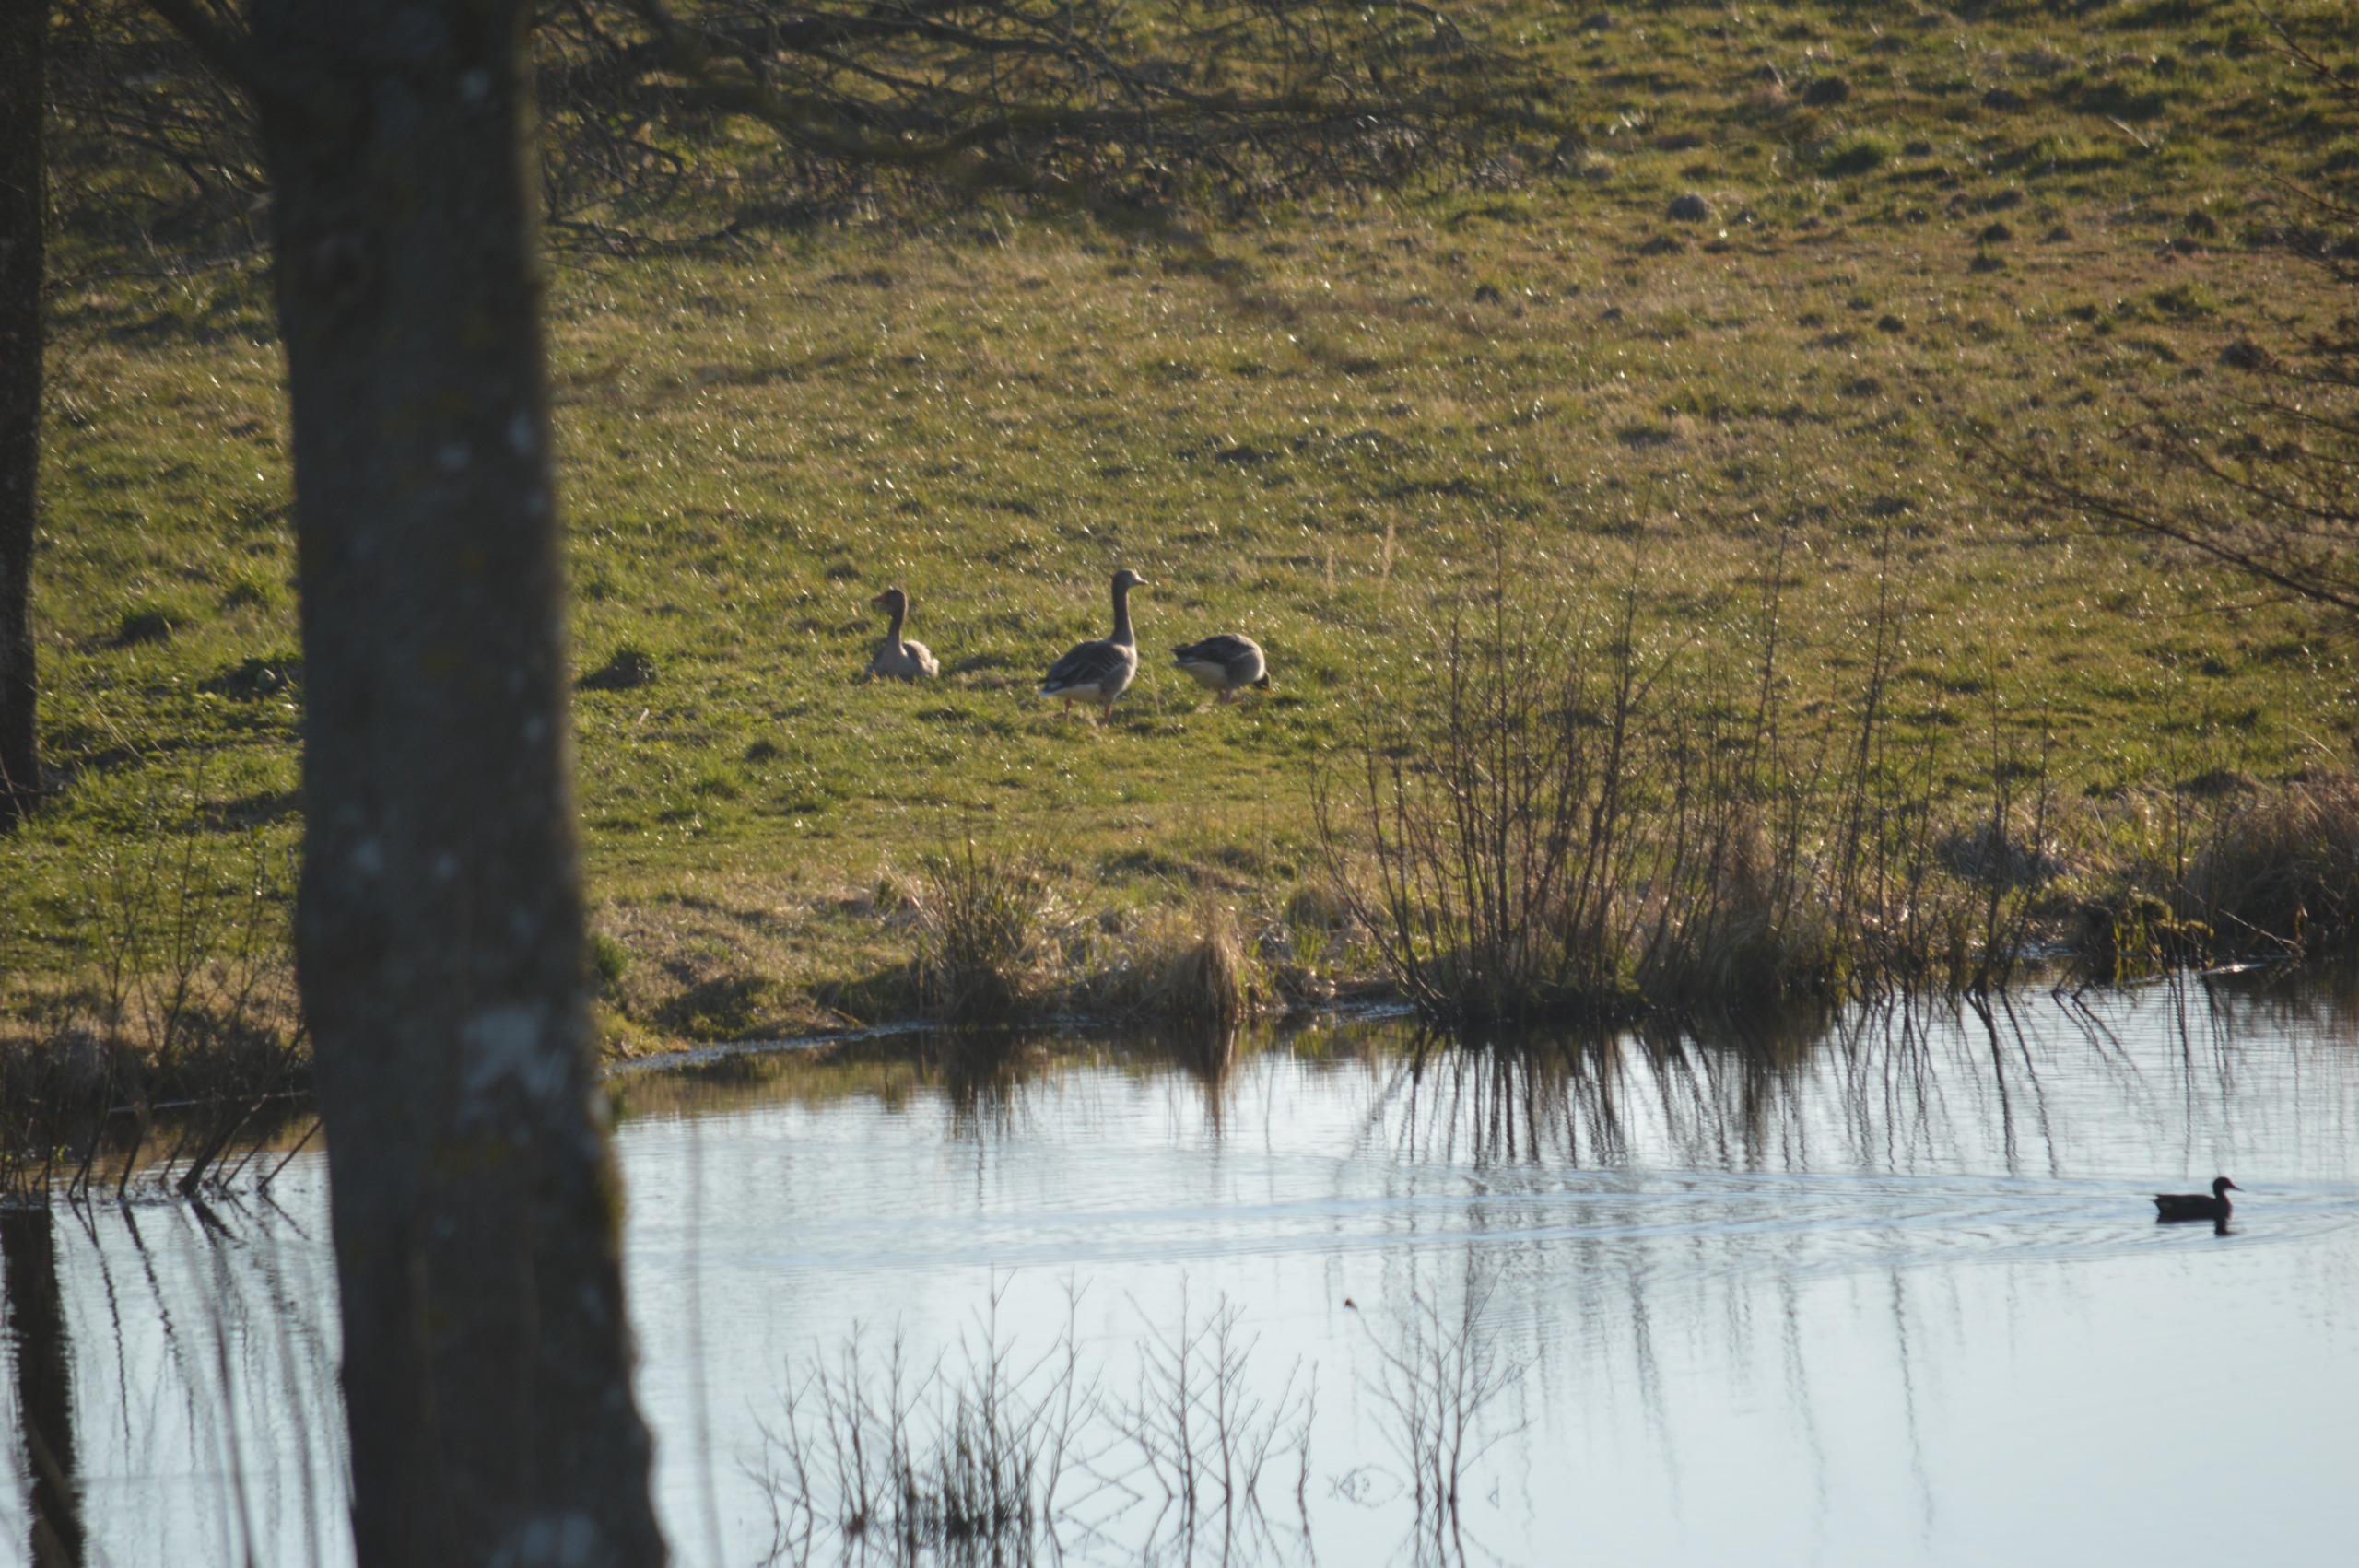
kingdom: Animalia
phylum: Chordata
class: Aves
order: Anseriformes
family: Anatidae
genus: Anser
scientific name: Anser anser
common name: Grågås
